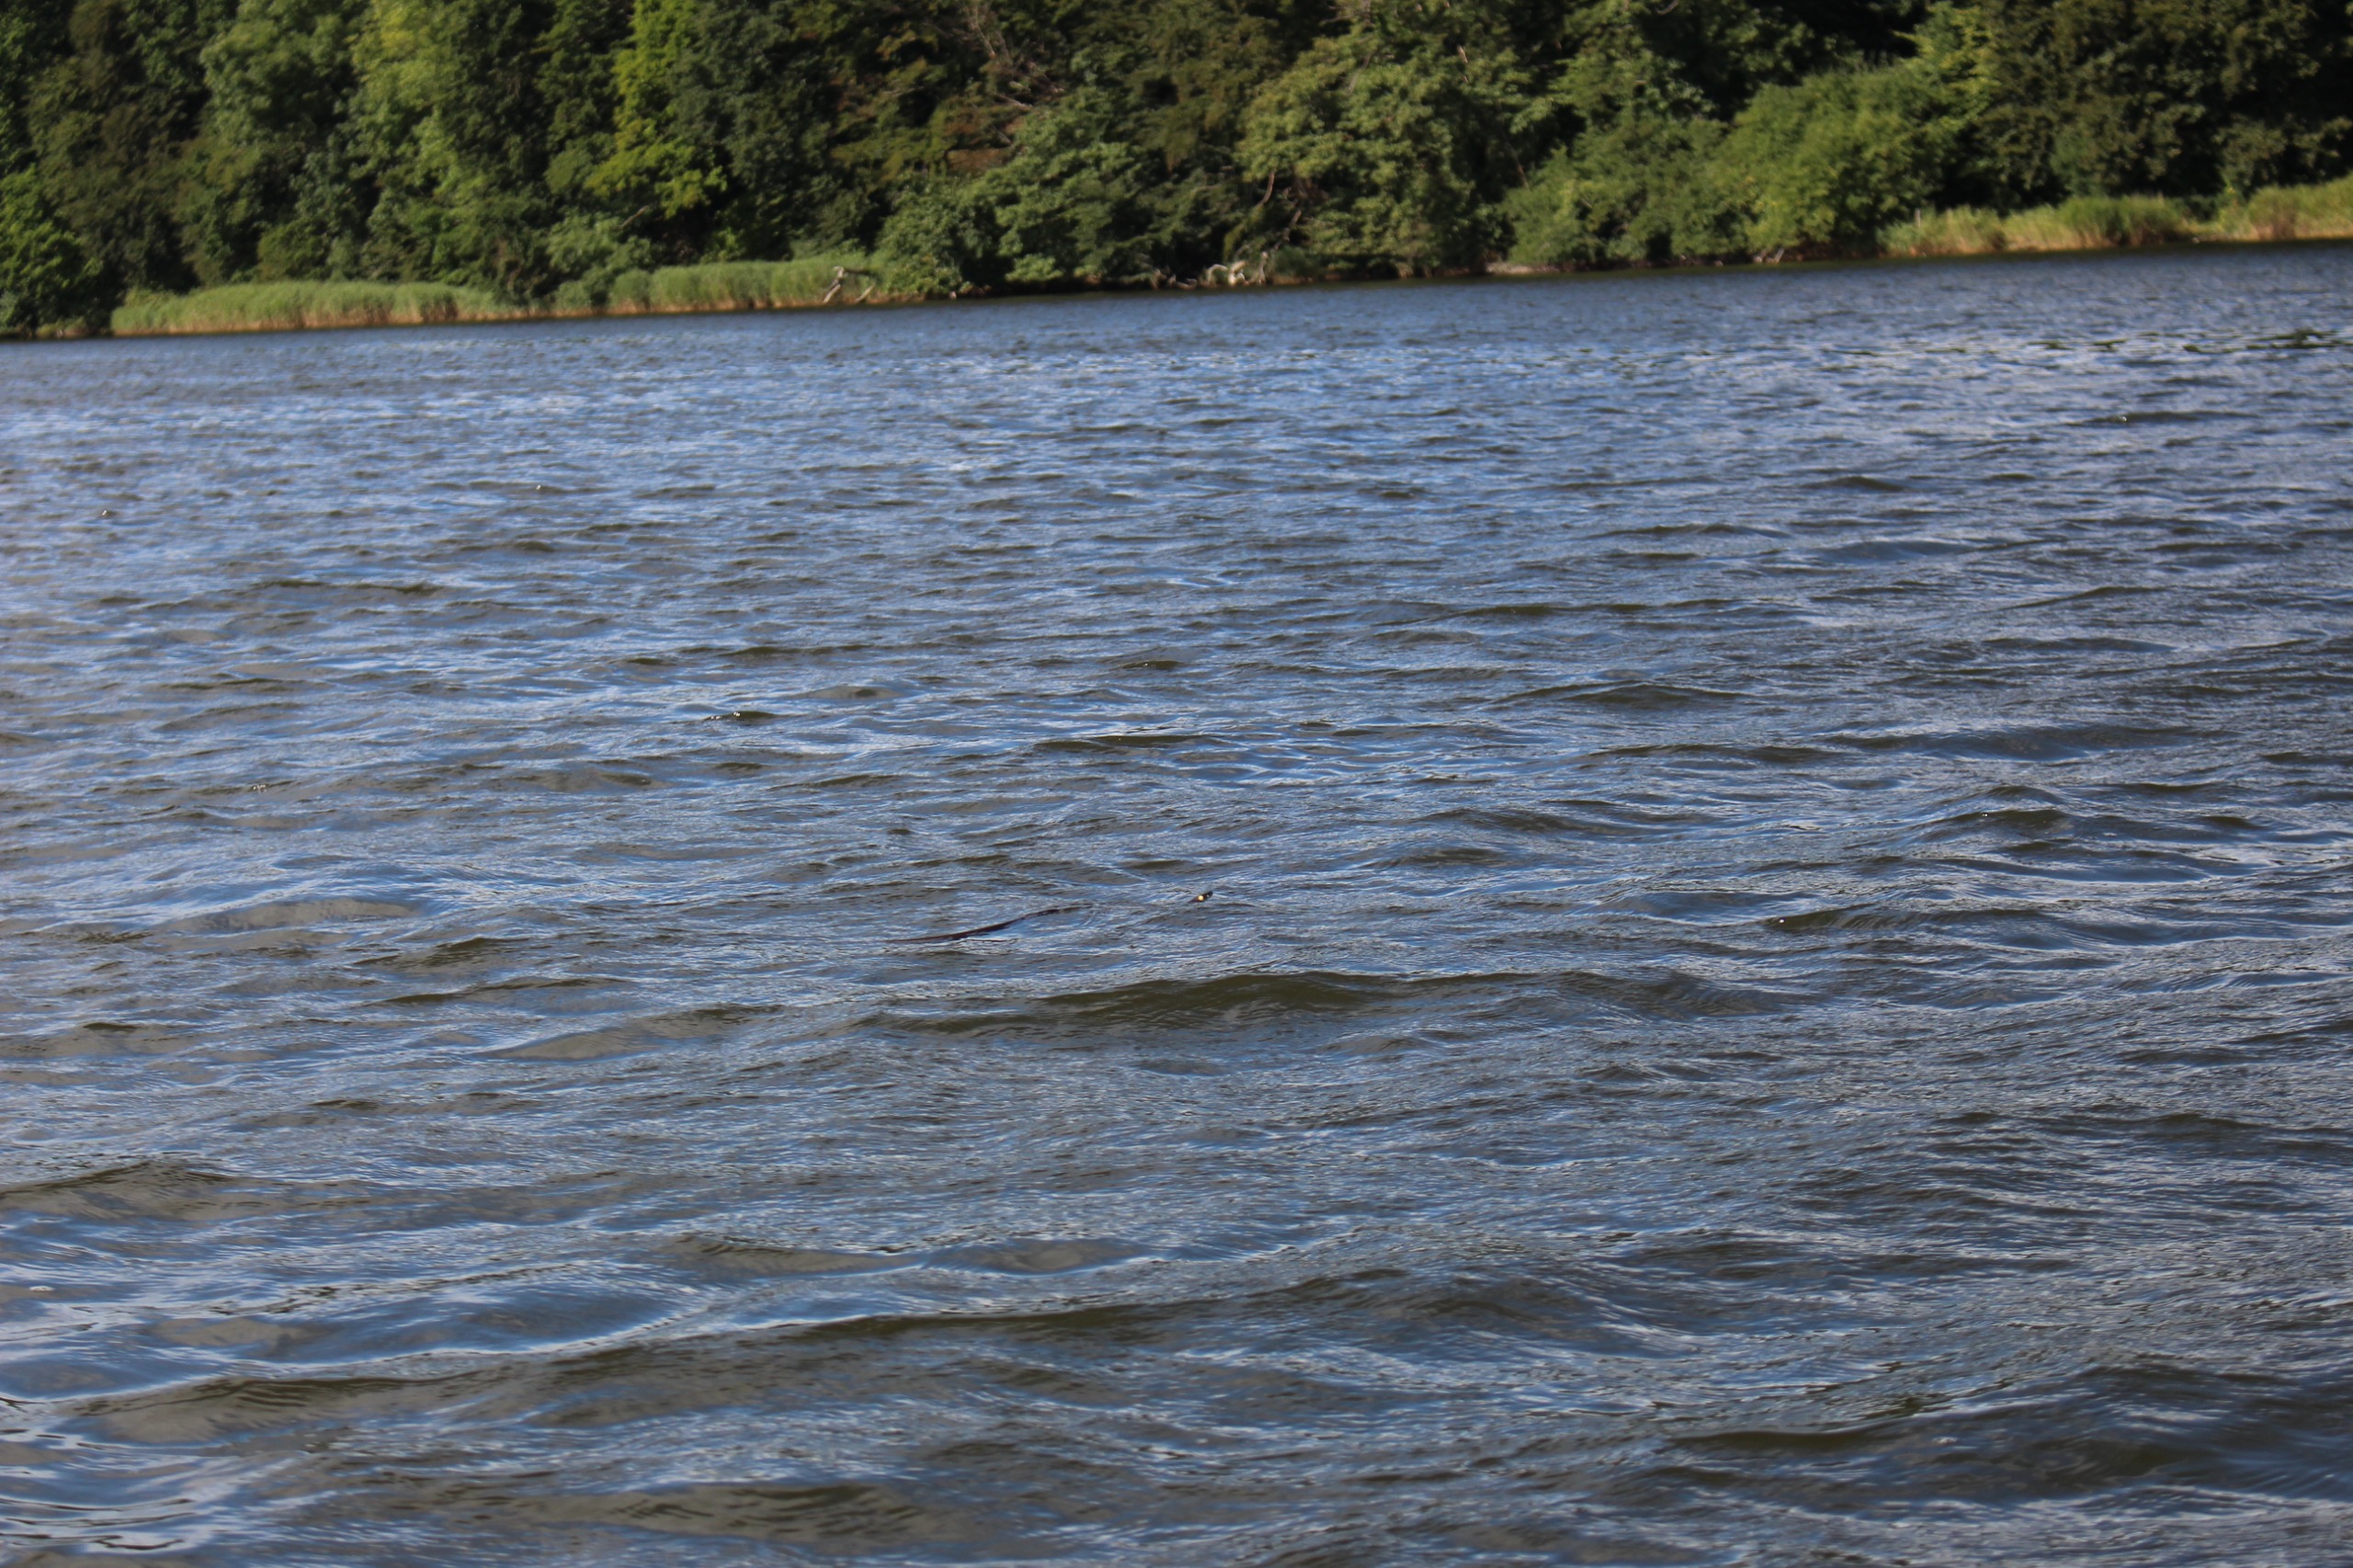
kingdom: Animalia
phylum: Chordata
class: Squamata
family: Colubridae
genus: Natrix
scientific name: Natrix natrix
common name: Snog
